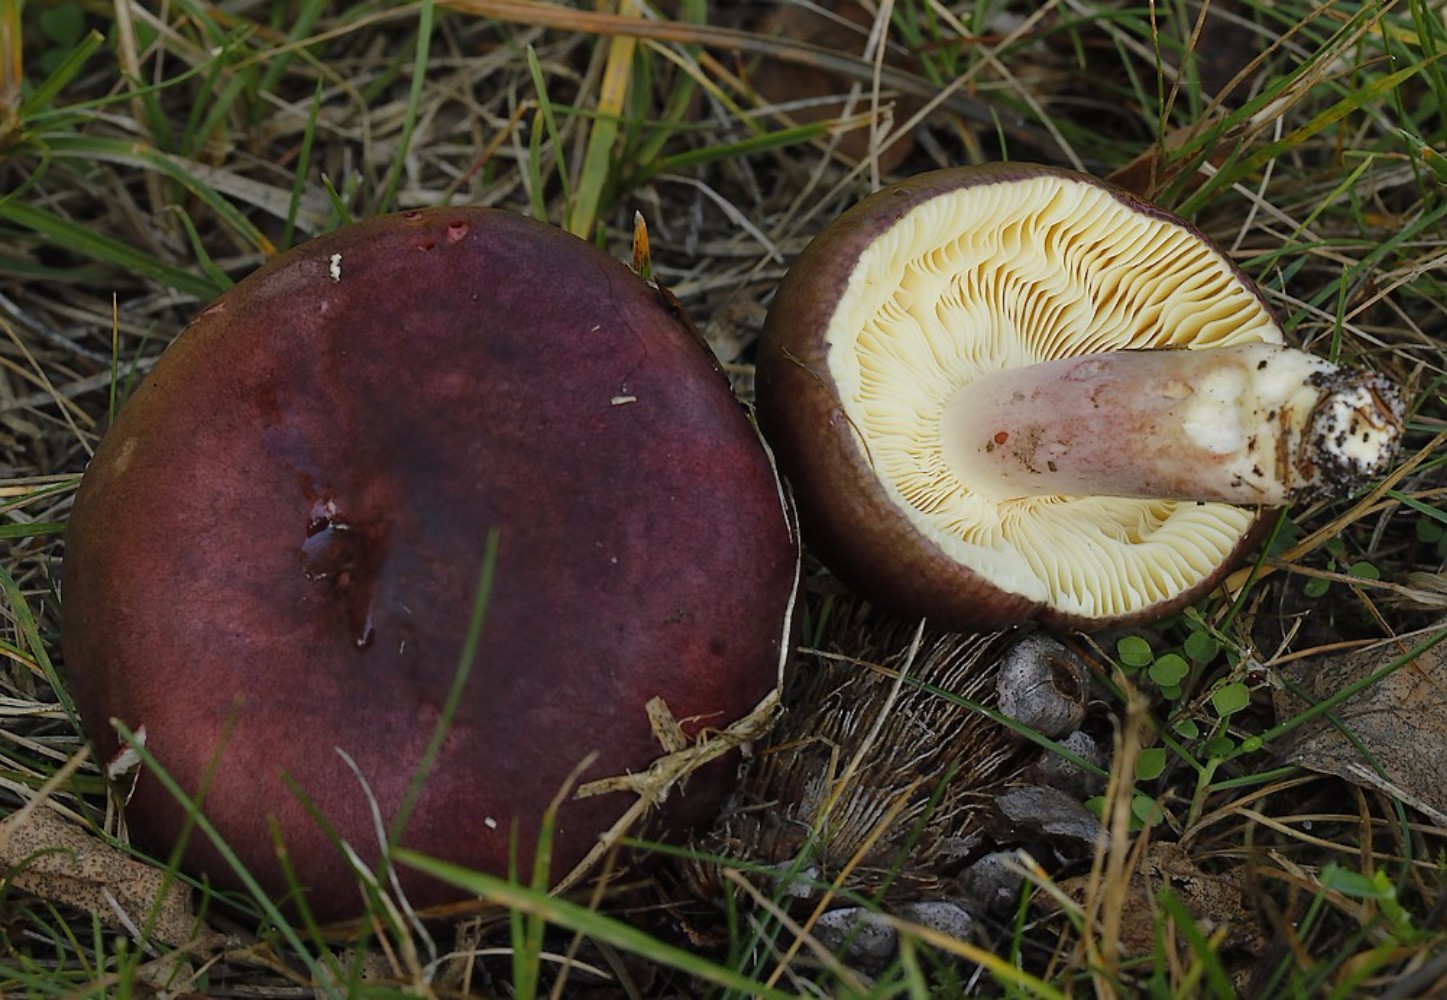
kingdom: Fungi
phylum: Basidiomycota
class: Agaricomycetes
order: Russulales
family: Russulaceae
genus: Russula
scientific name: Russula
